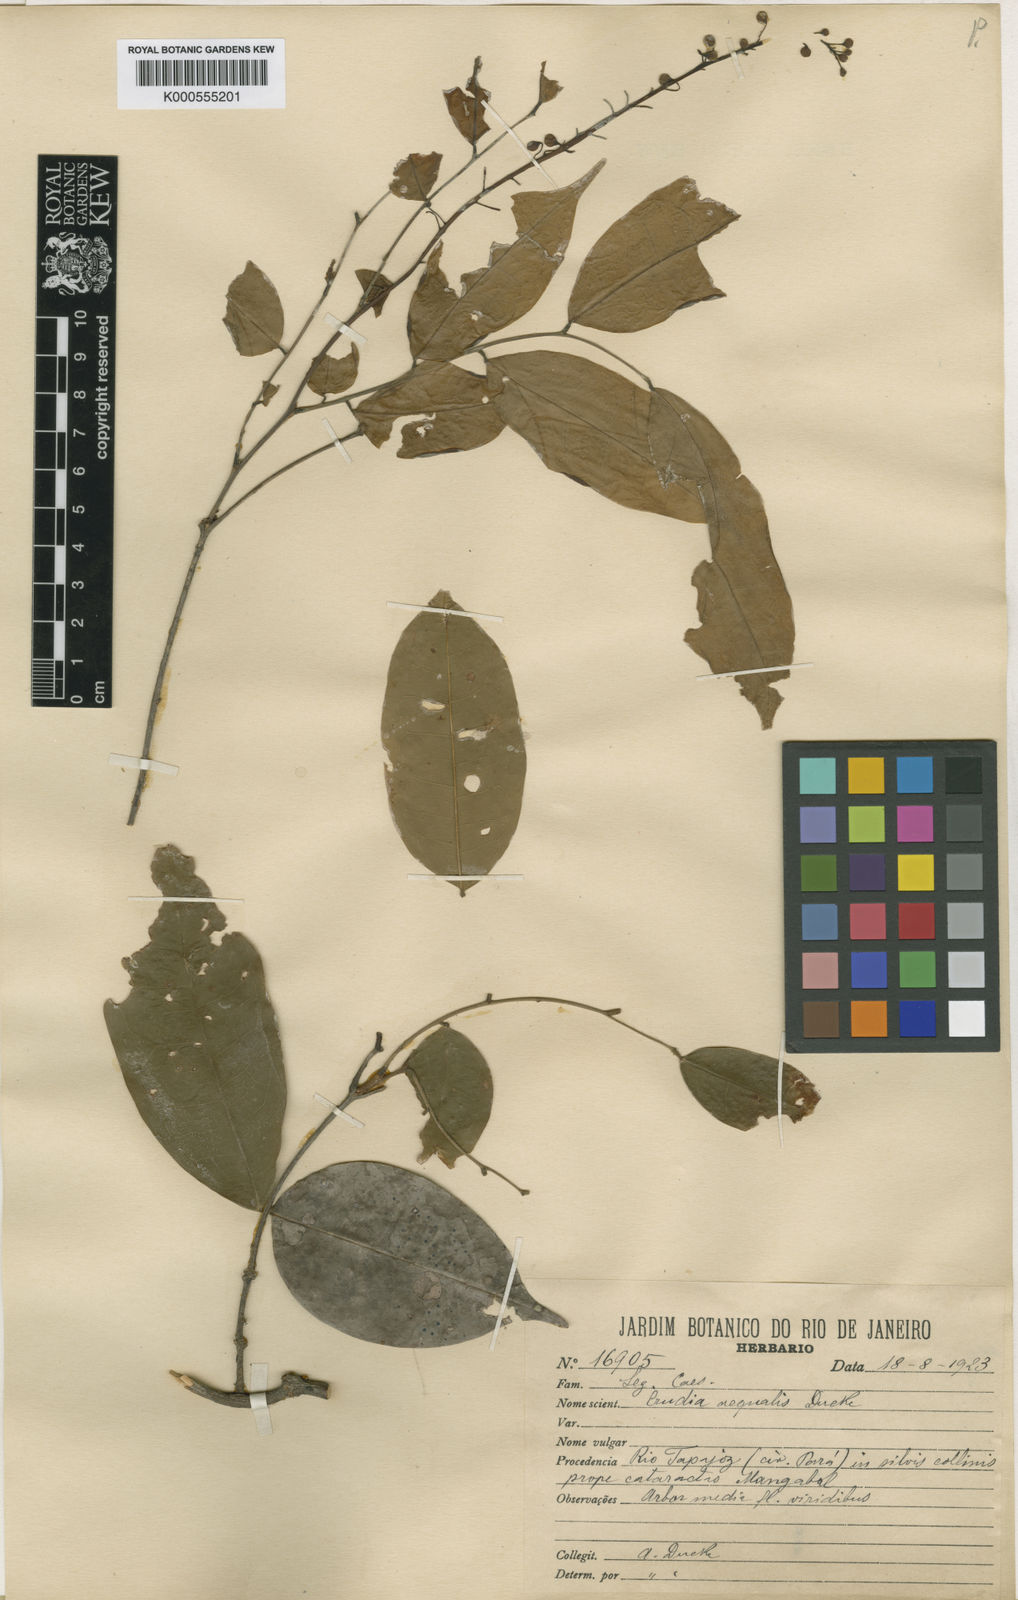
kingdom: Plantae
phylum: Tracheophyta
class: Magnoliopsida
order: Fabales
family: Fabaceae
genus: Crudia
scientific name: Crudia aequalis
